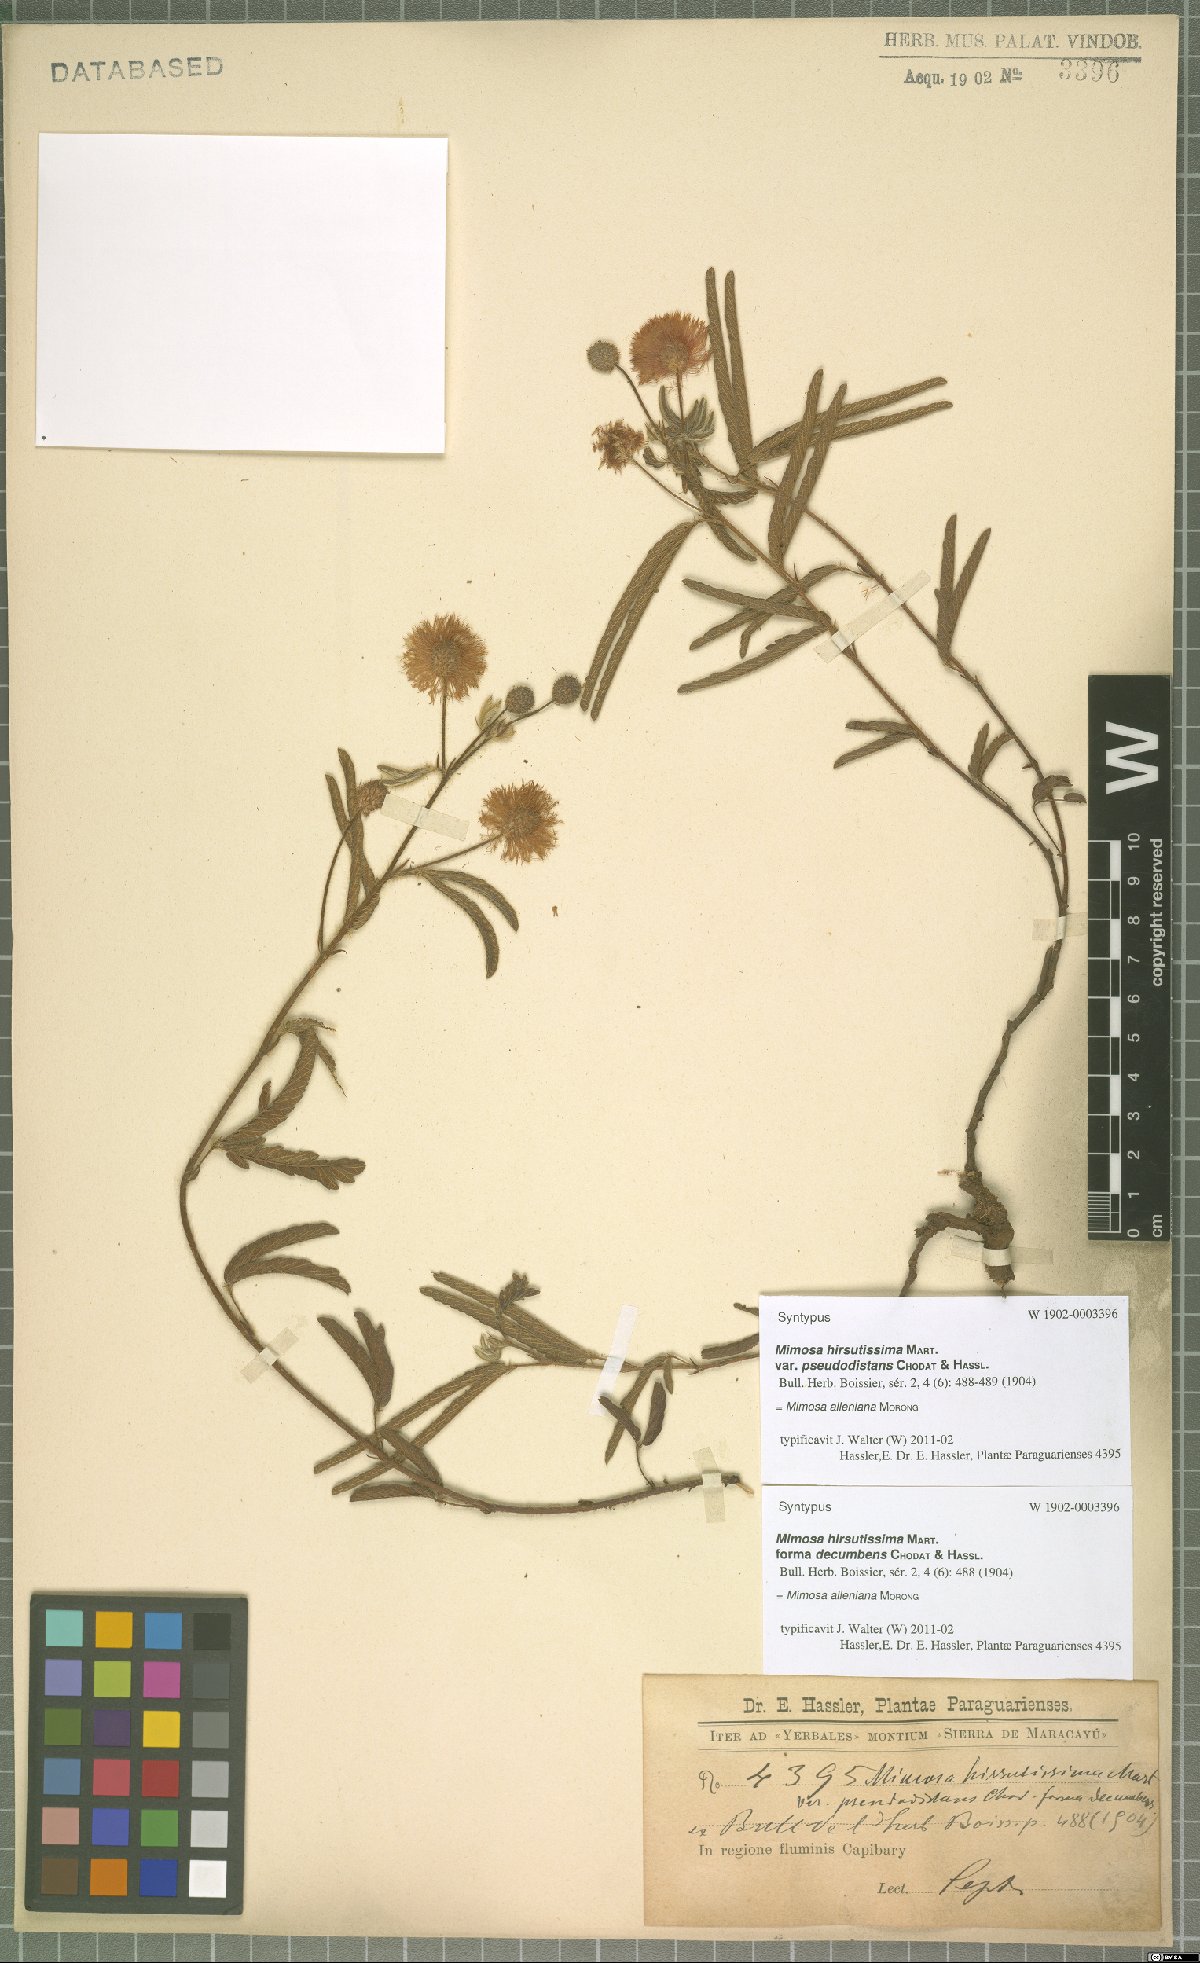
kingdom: Plantae
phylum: Tracheophyta
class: Magnoliopsida
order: Fabales
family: Fabaceae
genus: Mimosa
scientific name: Mimosa alleniana
